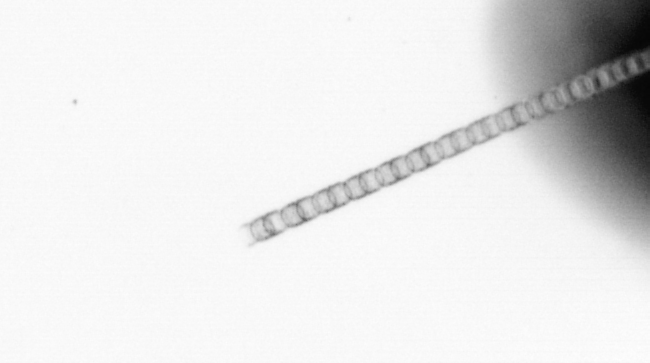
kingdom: Chromista
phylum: Ochrophyta
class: Bacillariophyceae
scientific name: Bacillariophyceae
